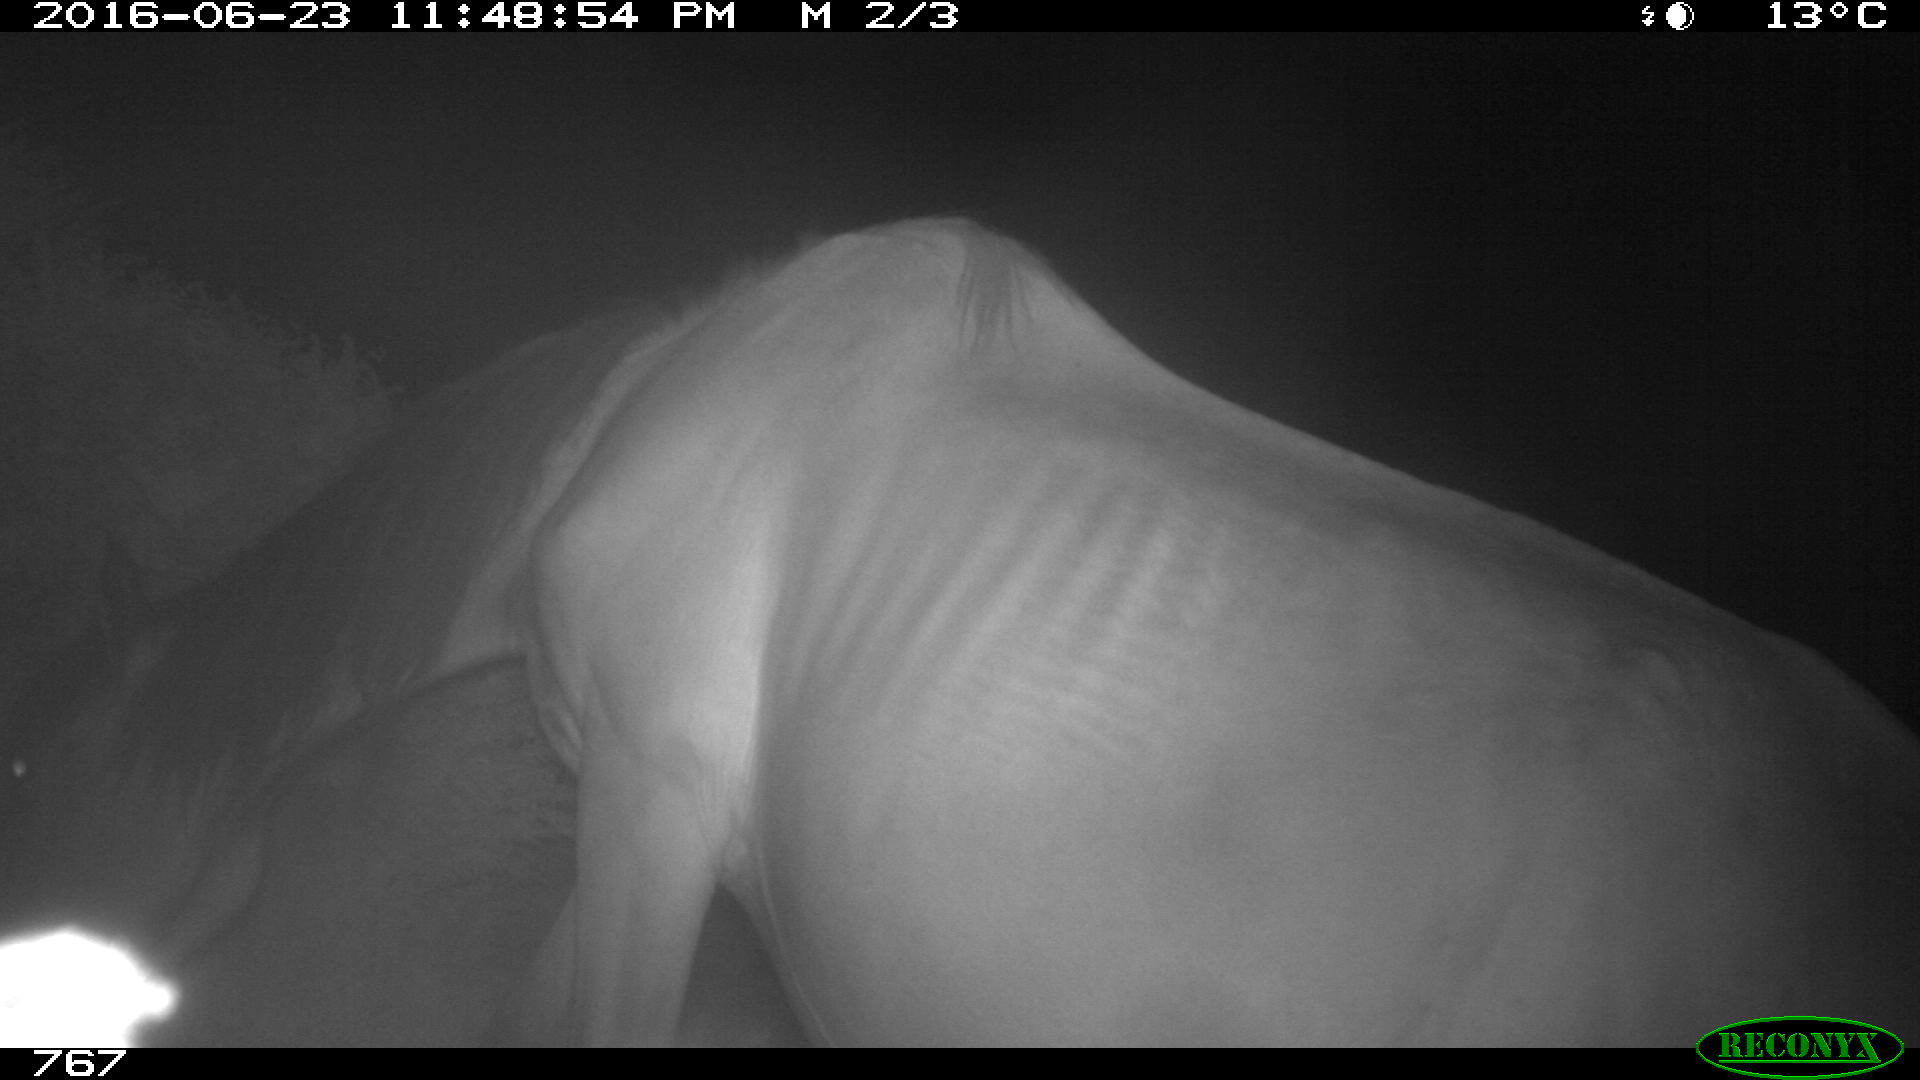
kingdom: Animalia
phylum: Chordata
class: Mammalia
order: Perissodactyla
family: Equidae
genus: Equus
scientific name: Equus caballus
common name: Horse
